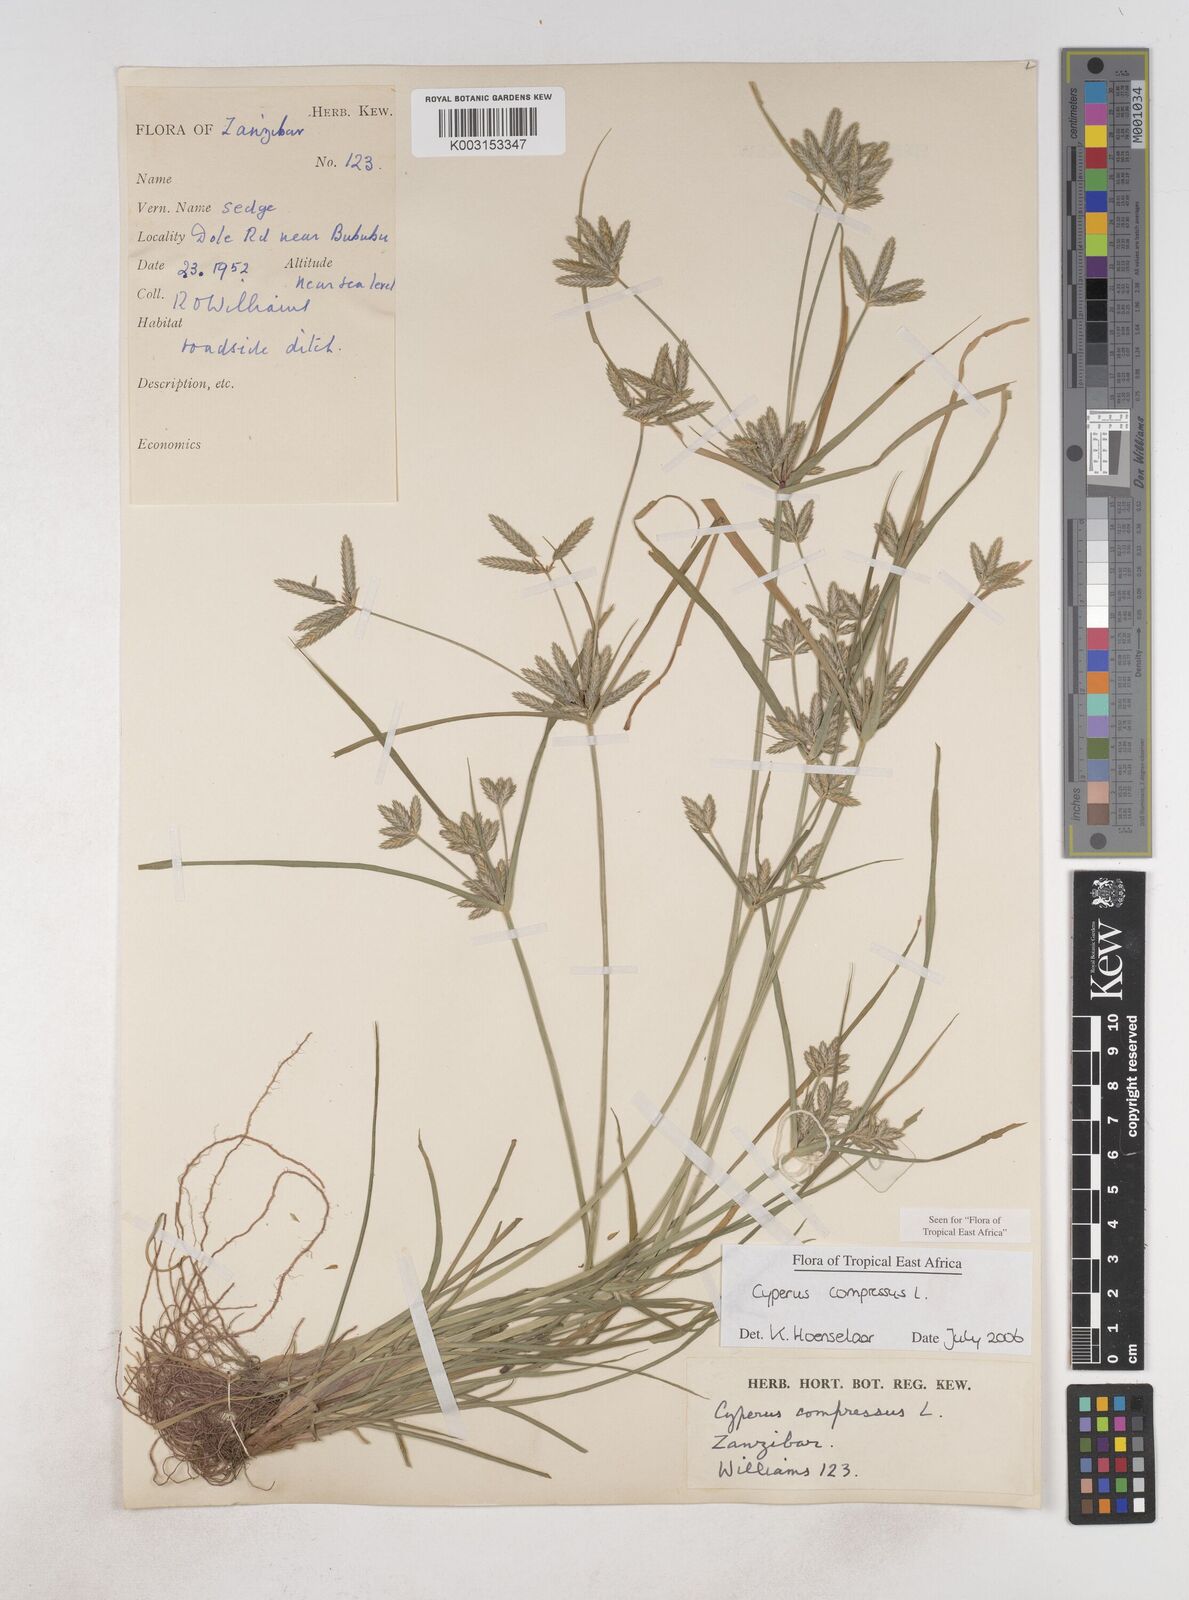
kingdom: Plantae
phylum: Tracheophyta
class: Liliopsida
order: Poales
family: Cyperaceae
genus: Cyperus
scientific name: Cyperus compressus
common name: Poorland flatsedge
